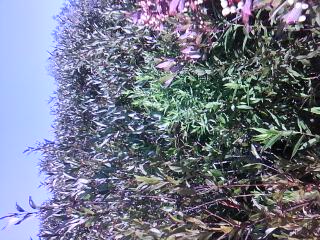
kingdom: Plantae
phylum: Tracheophyta
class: Magnoliopsida
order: Lamiales
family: Lamiaceae
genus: Lycopus
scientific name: Lycopus americanus
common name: American bugleweed
